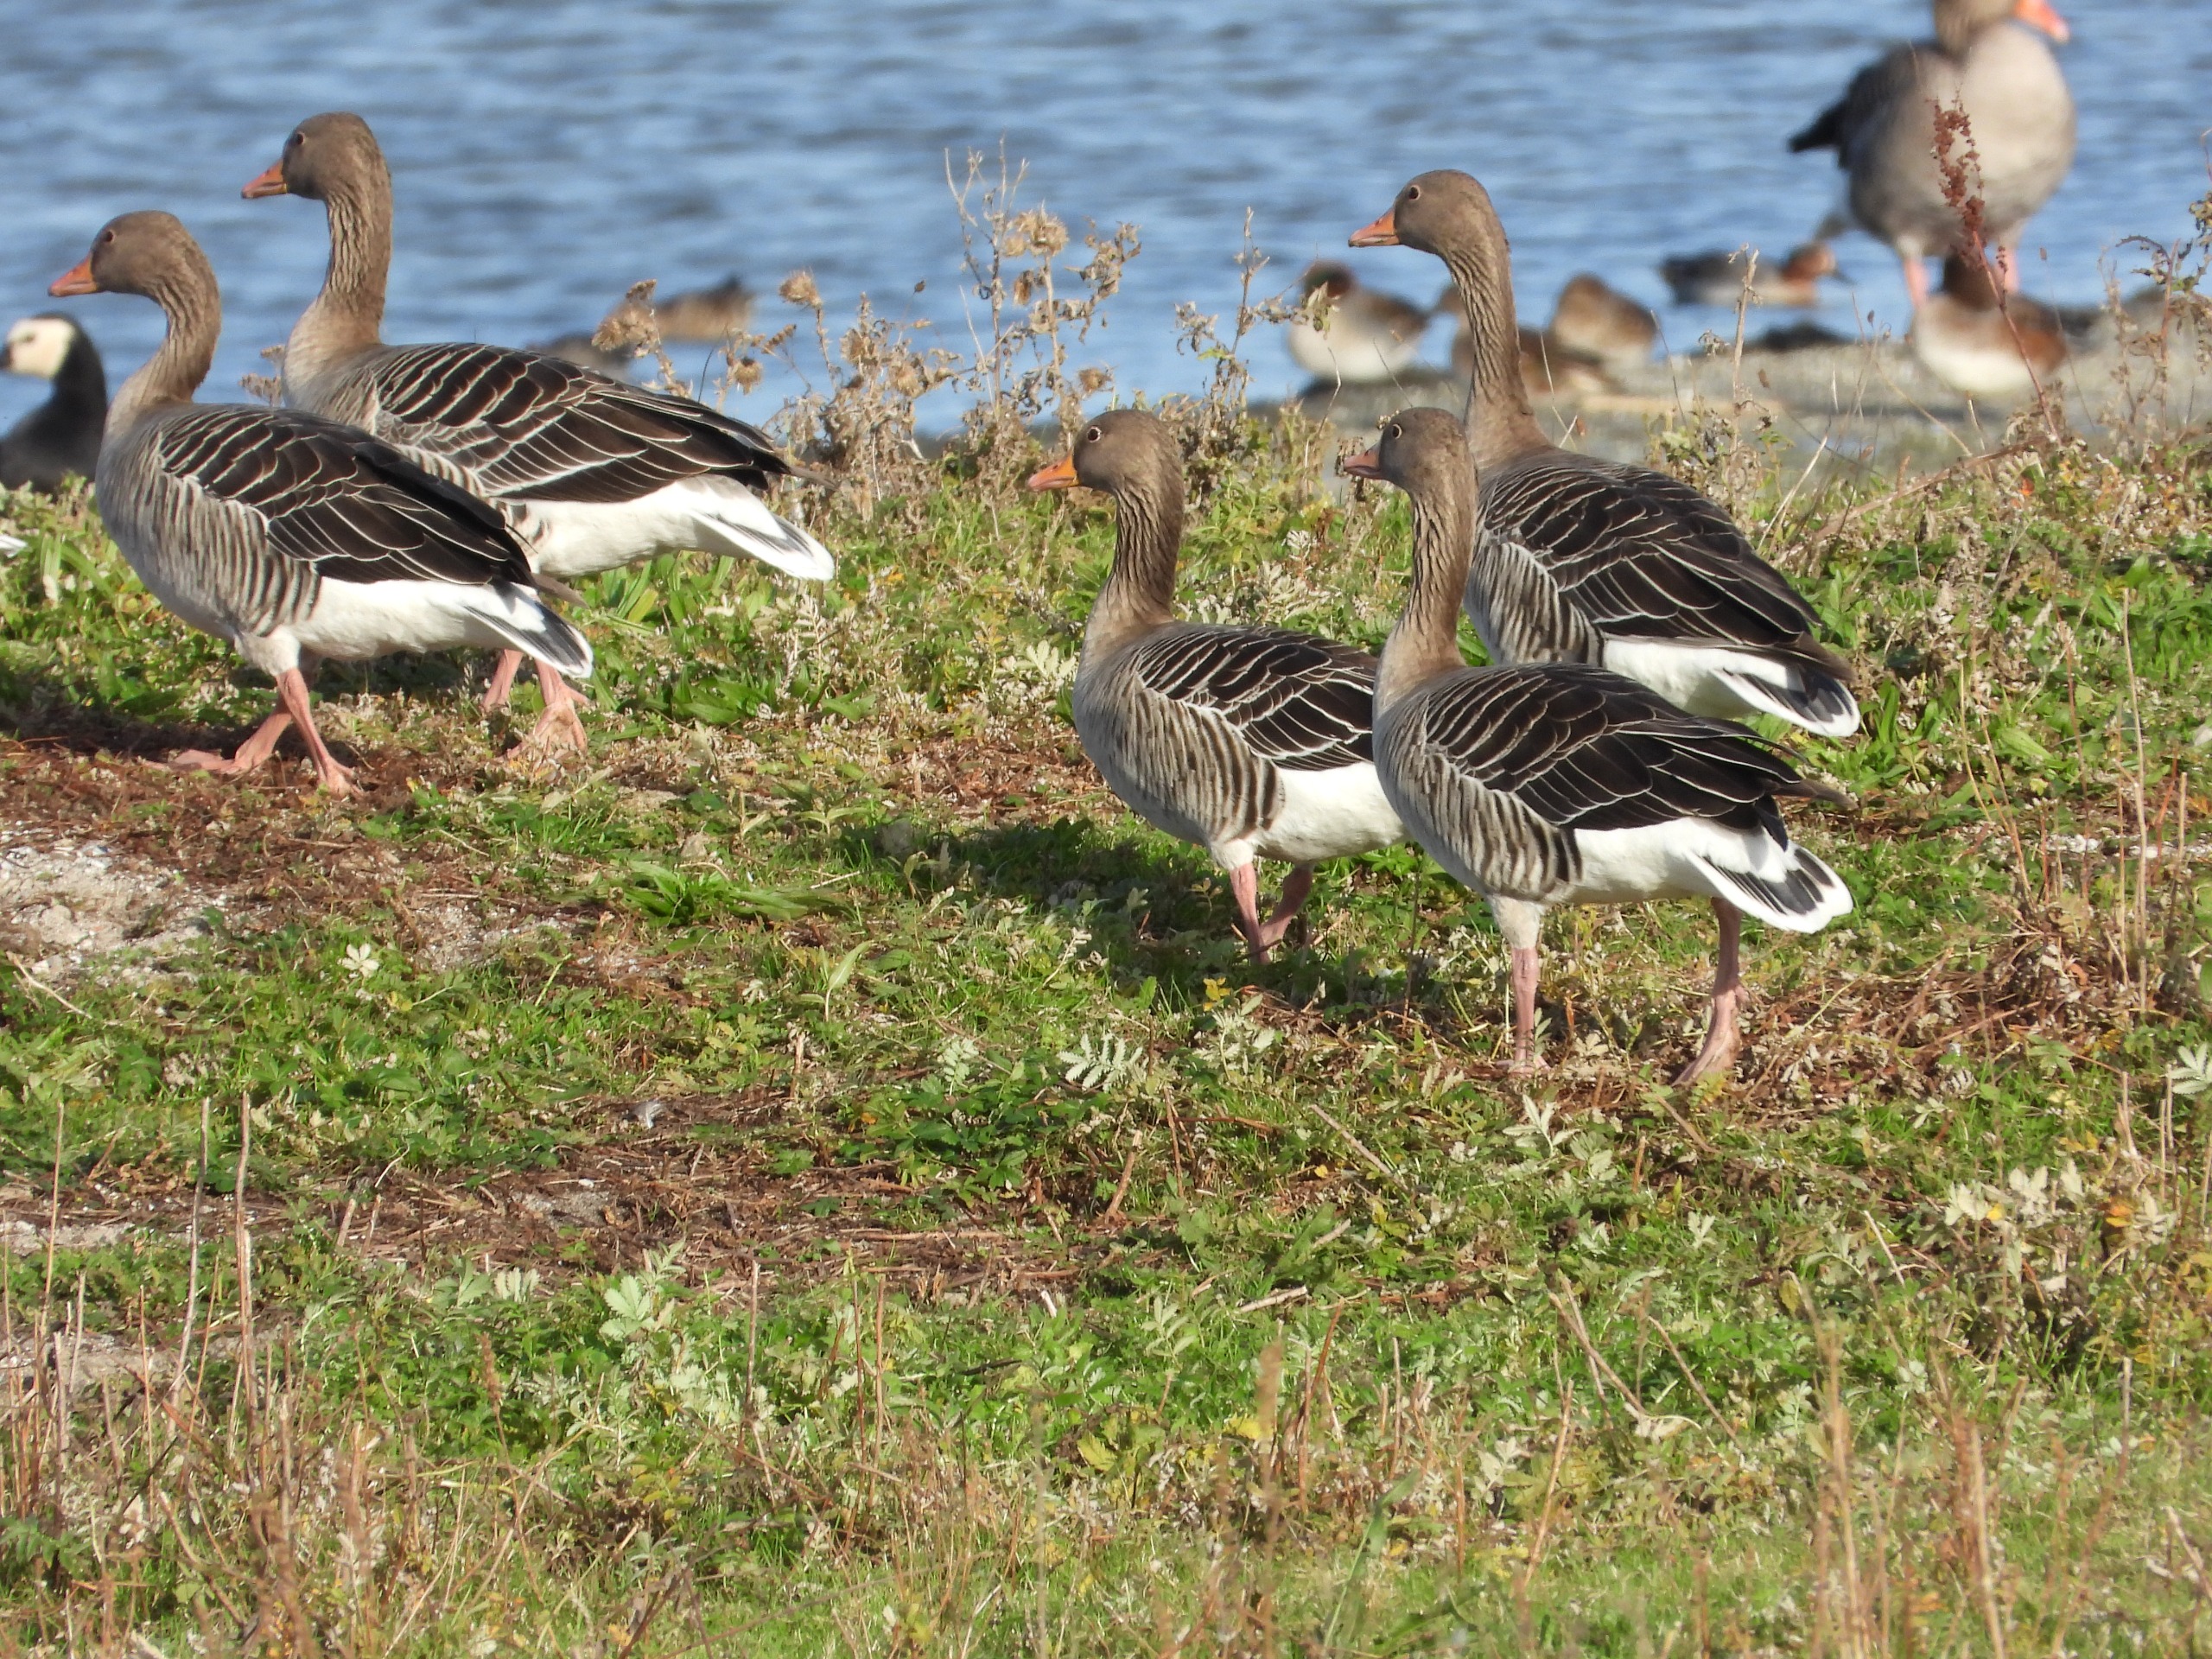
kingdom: Animalia
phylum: Chordata
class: Aves
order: Anseriformes
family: Anatidae
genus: Anser
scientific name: Anser anser
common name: Grågås
